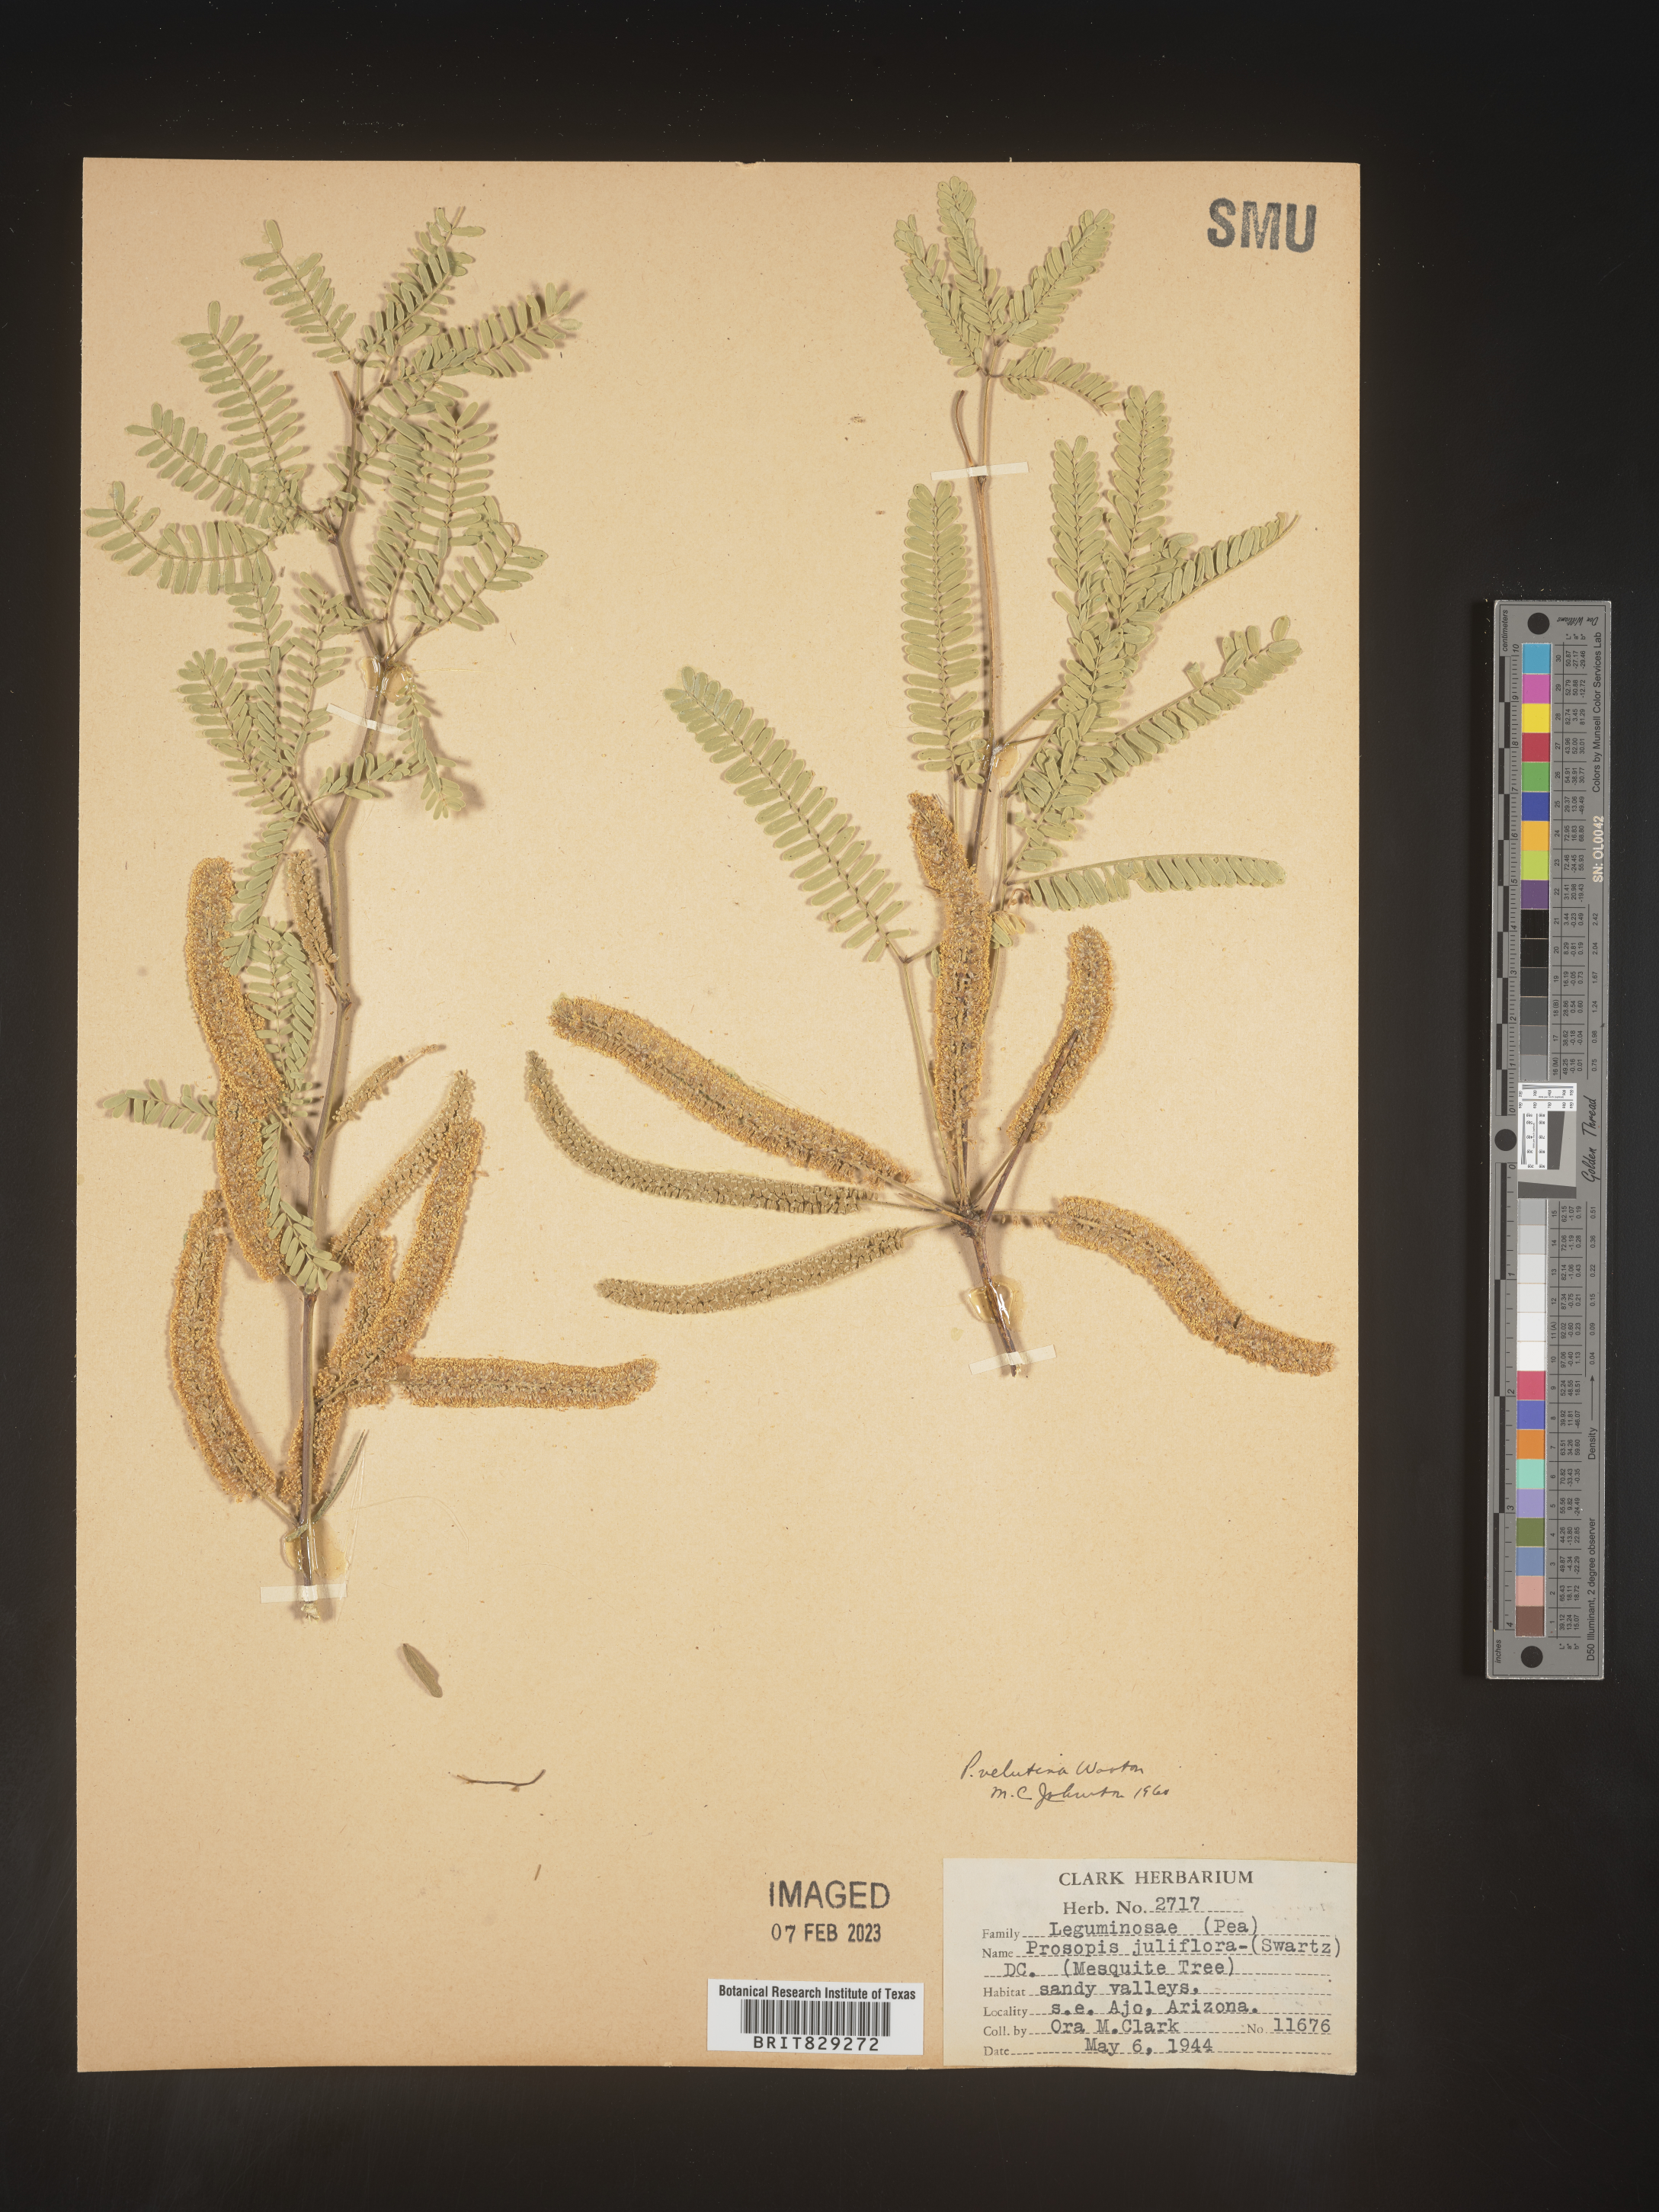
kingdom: Plantae
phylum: Tracheophyta
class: Magnoliopsida
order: Fabales
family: Fabaceae
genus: Prosopis
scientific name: Prosopis
